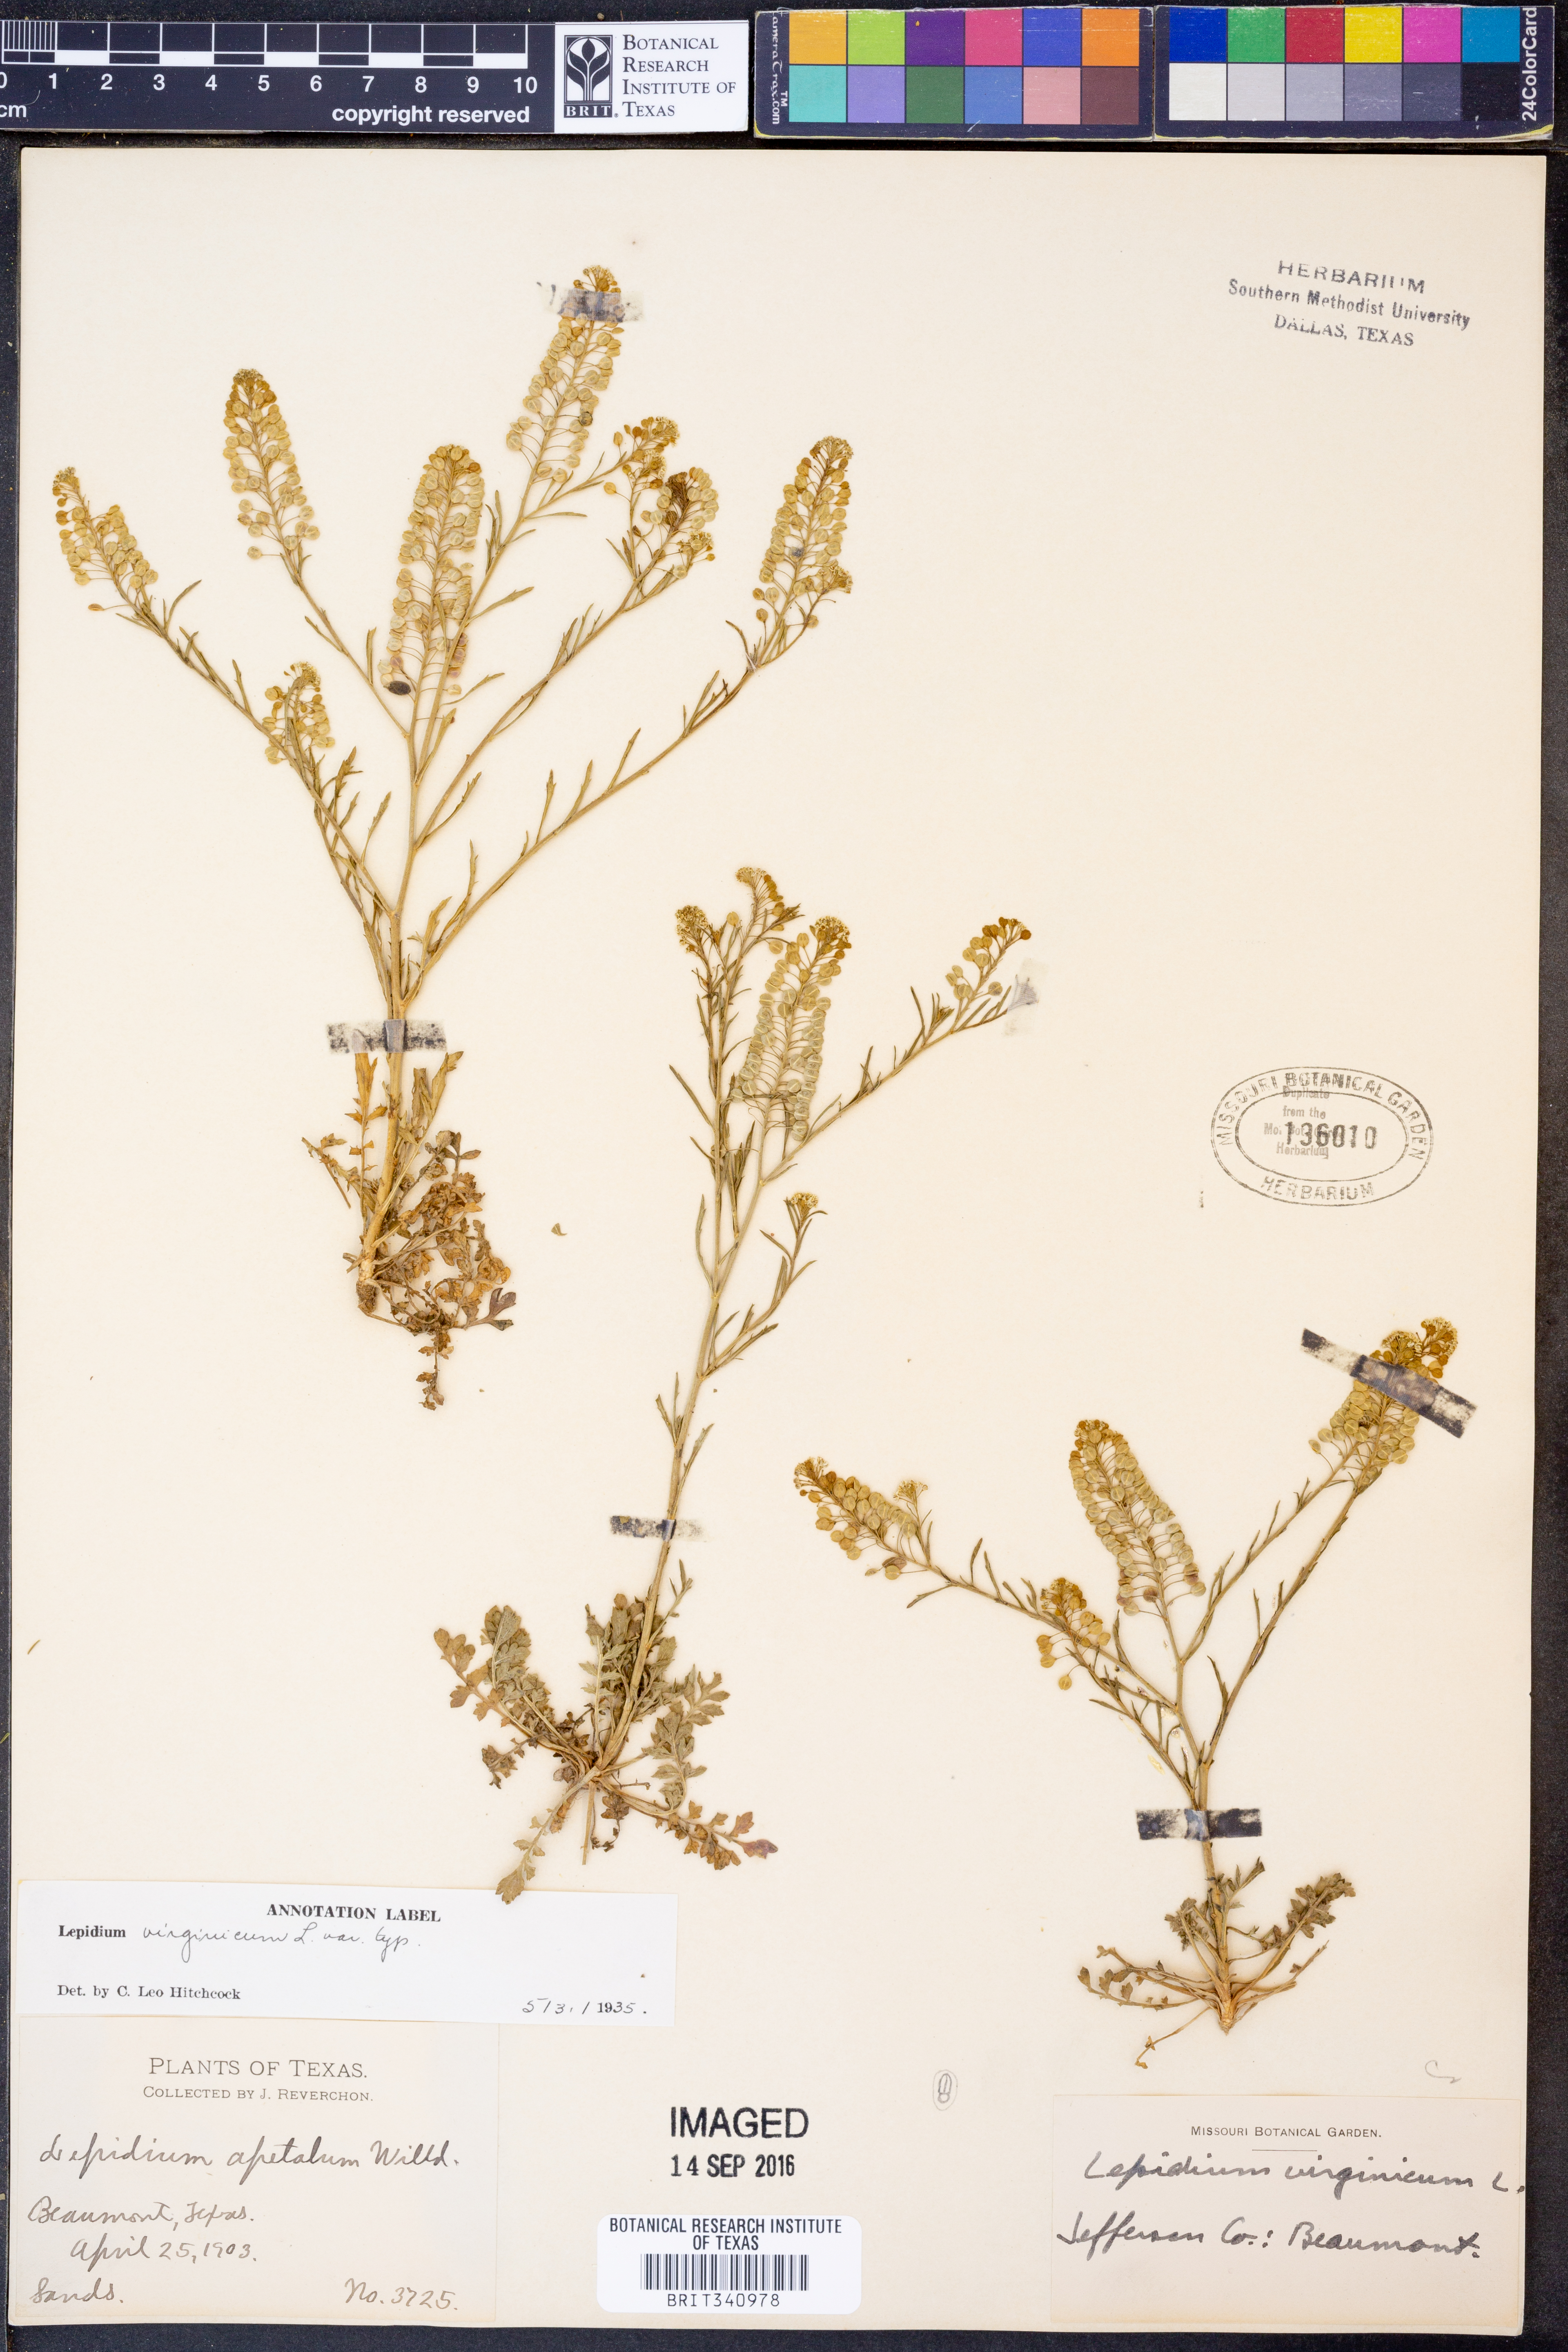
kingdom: Plantae
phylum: Tracheophyta
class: Magnoliopsida
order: Brassicales
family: Brassicaceae
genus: Lepidium
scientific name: Lepidium virginicum
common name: Least pepperwort
